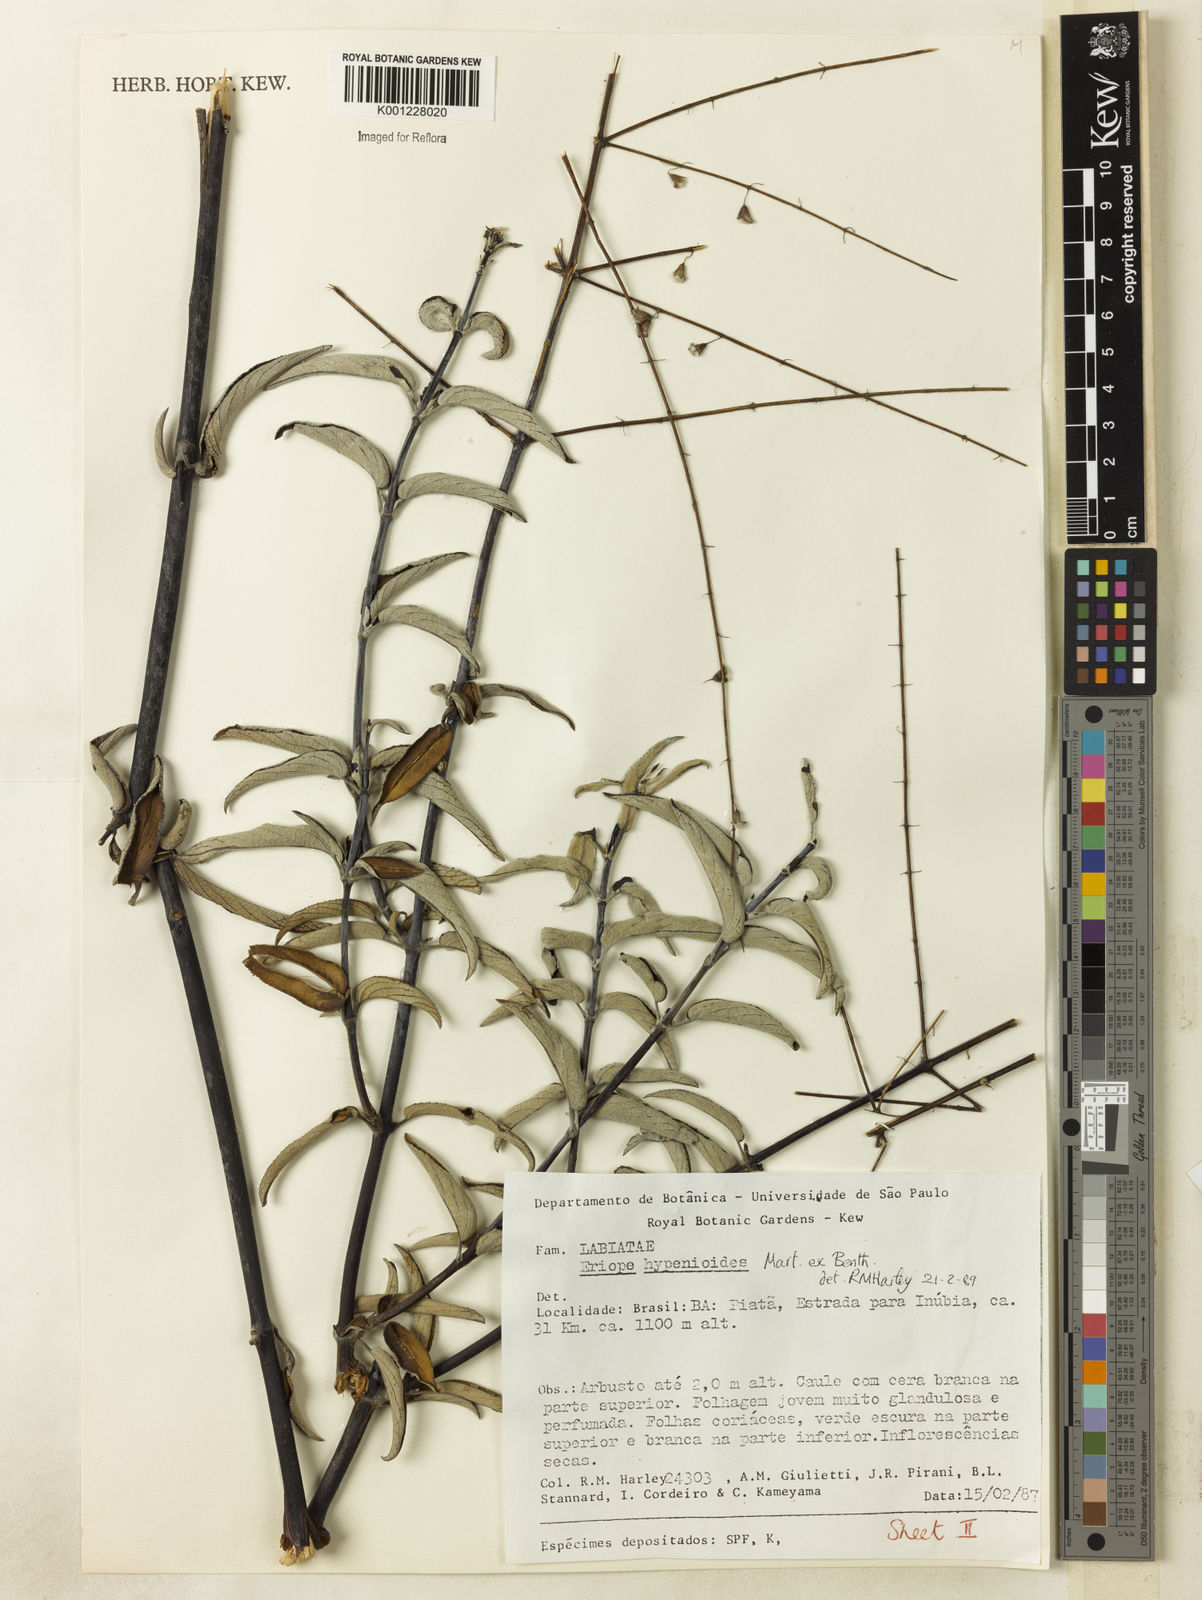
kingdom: Plantae
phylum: Tracheophyta
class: Magnoliopsida
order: Lamiales
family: Lamiaceae
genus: Eriope
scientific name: Eriope hypenioides
